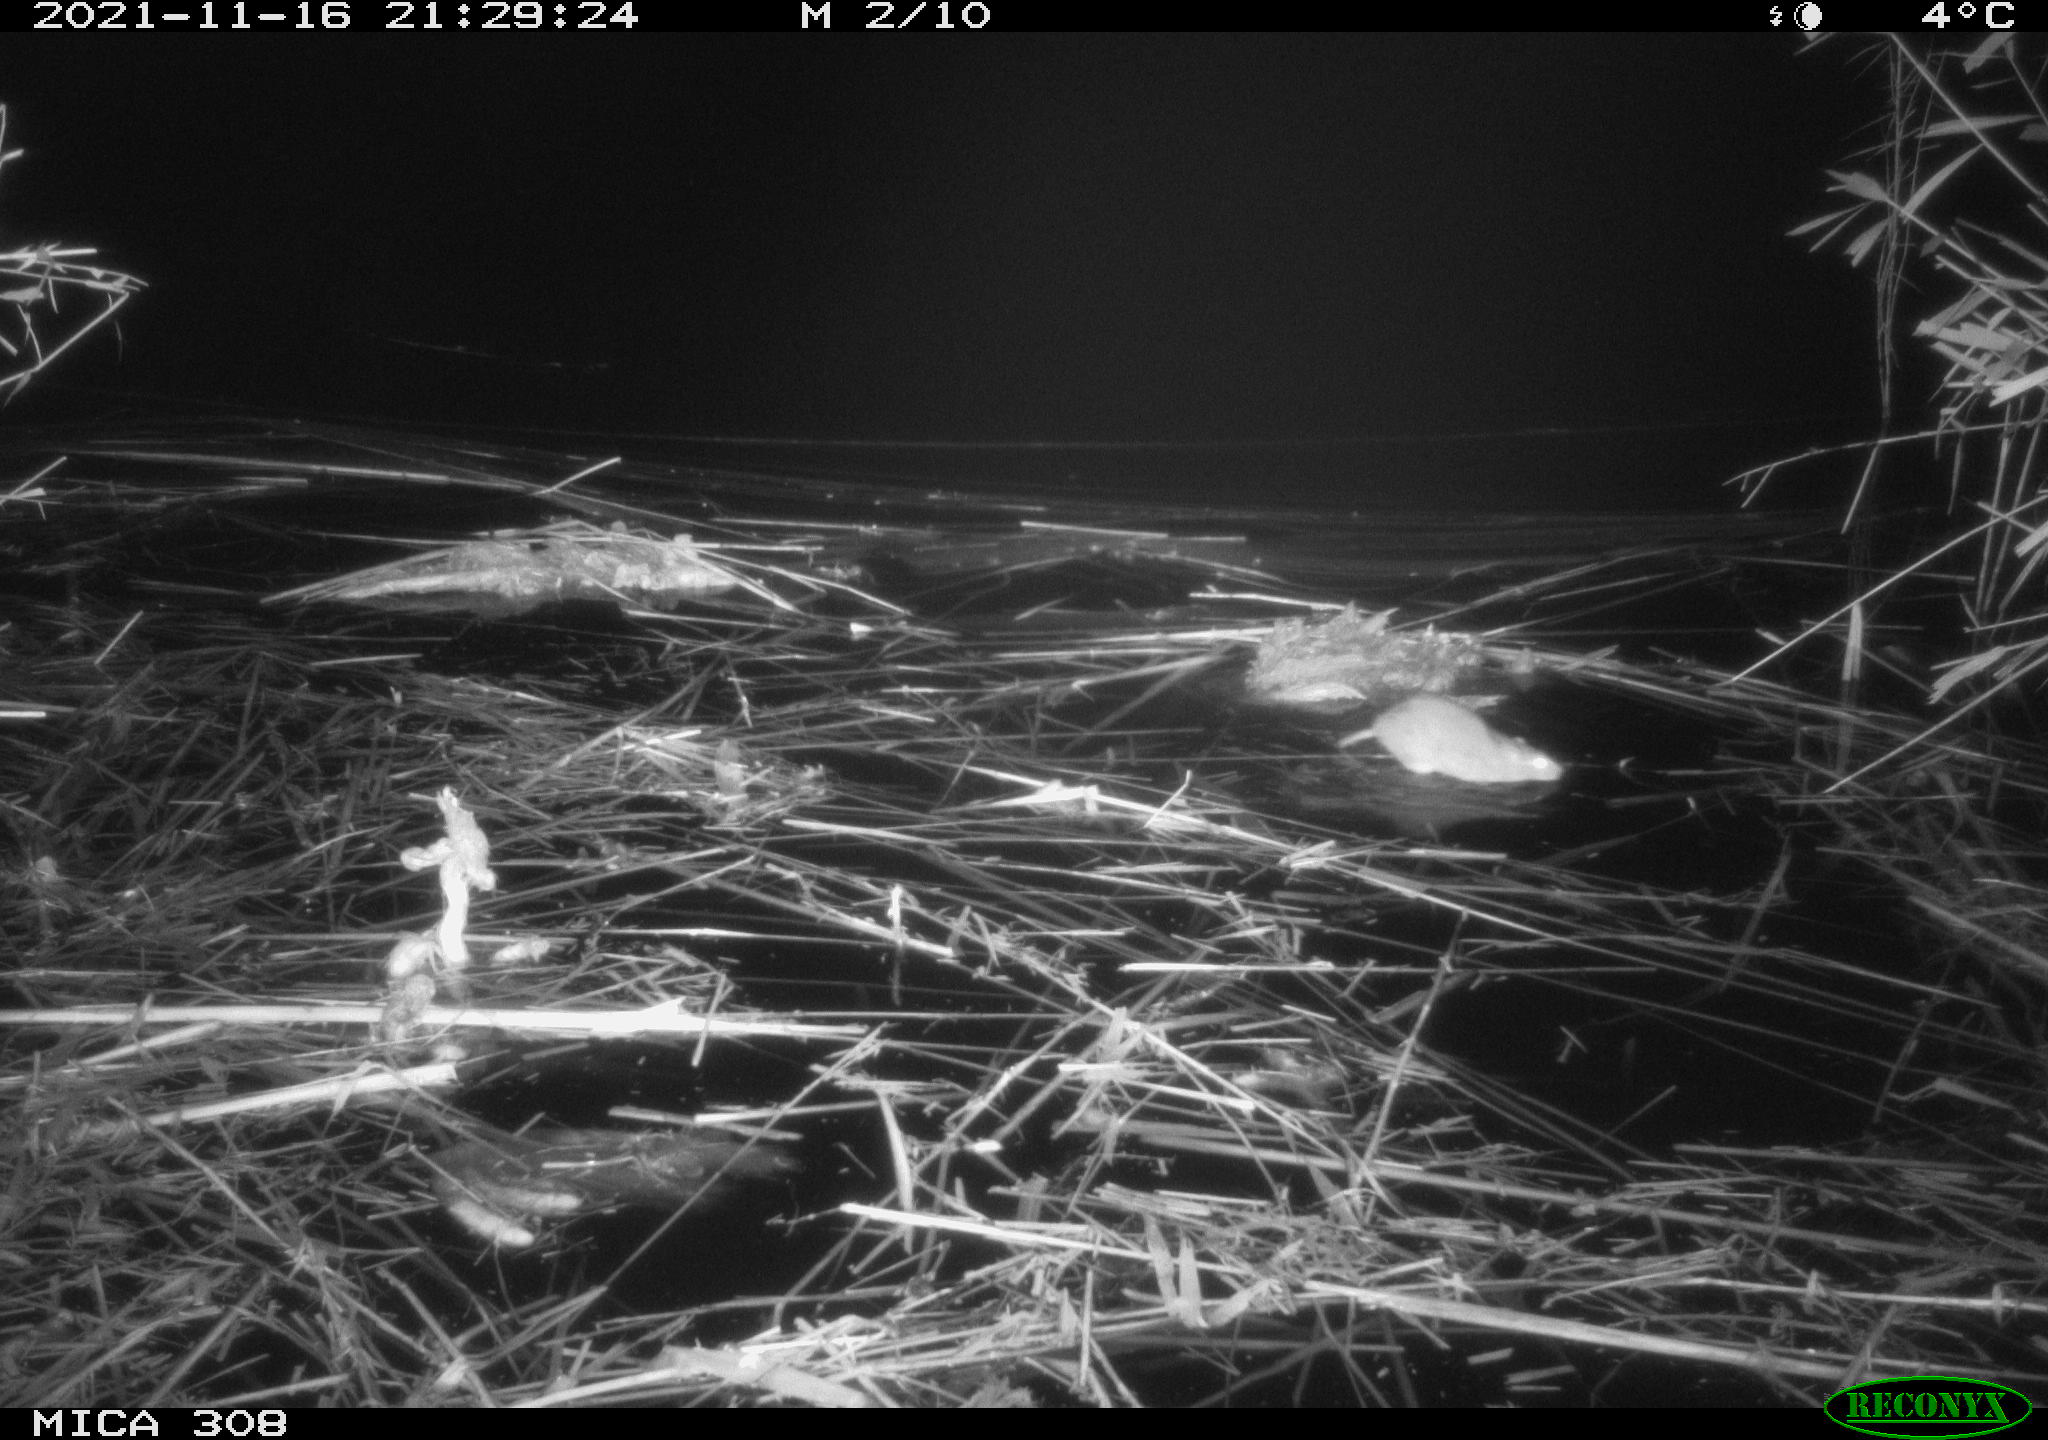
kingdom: Animalia
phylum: Chordata
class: Mammalia
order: Rodentia
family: Muridae
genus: Rattus
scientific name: Rattus norvegicus
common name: Brown rat
